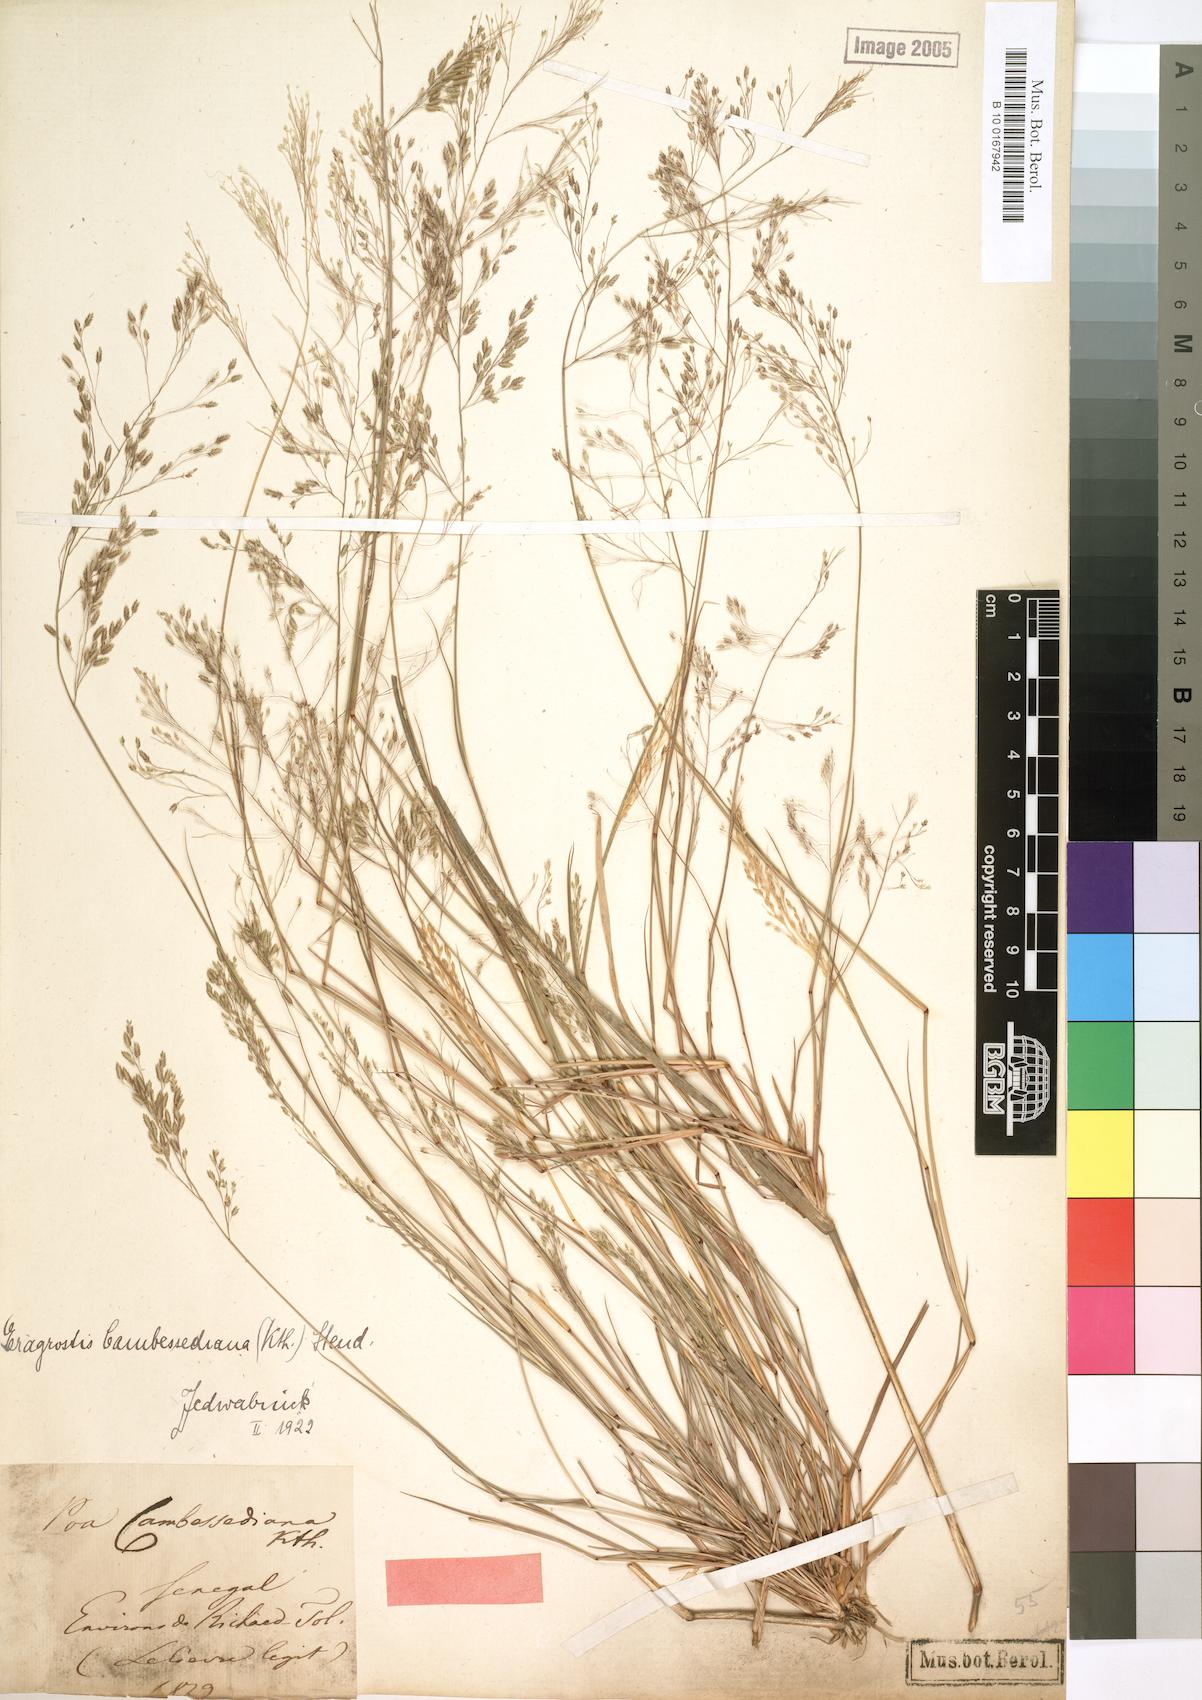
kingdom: Plantae
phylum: Tracheophyta
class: Liliopsida
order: Poales
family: Poaceae
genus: Eragrostis
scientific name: Eragrostis gangetica
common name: Slimflower lovegrass
